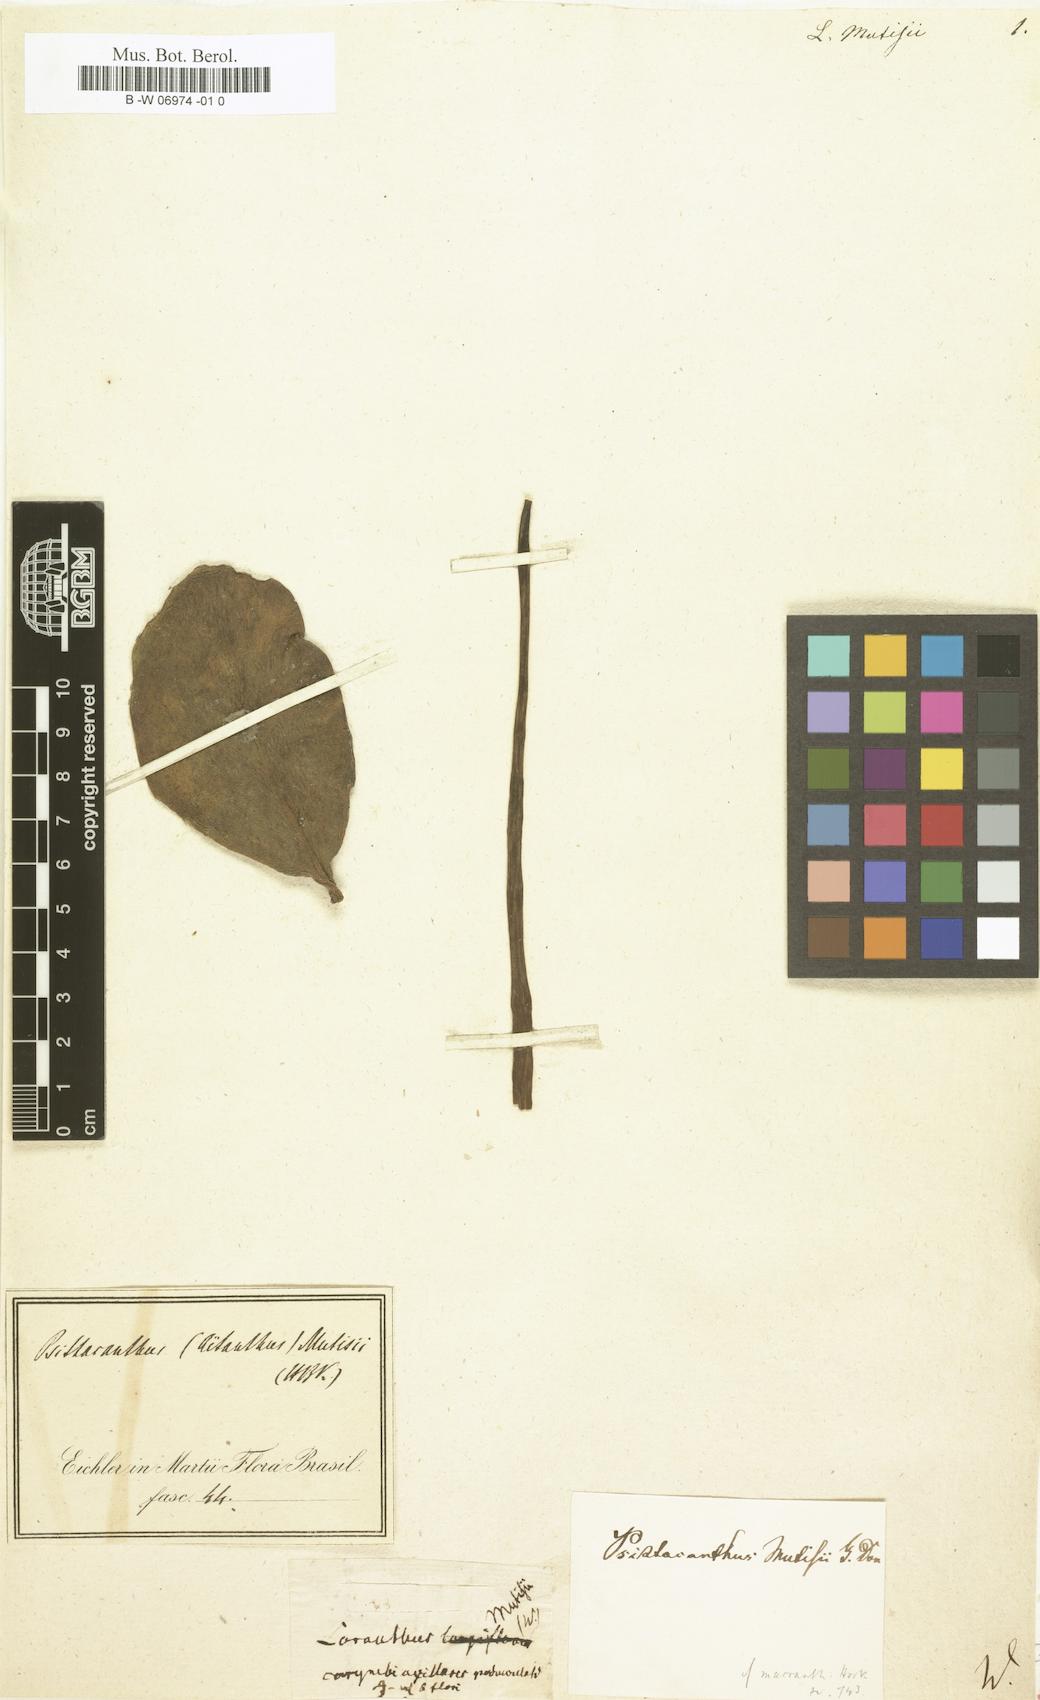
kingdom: Plantae
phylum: Tracheophyta
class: Magnoliopsida
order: Santalales
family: Loranthaceae
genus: Aetanthus
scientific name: Aetanthus mutisii
